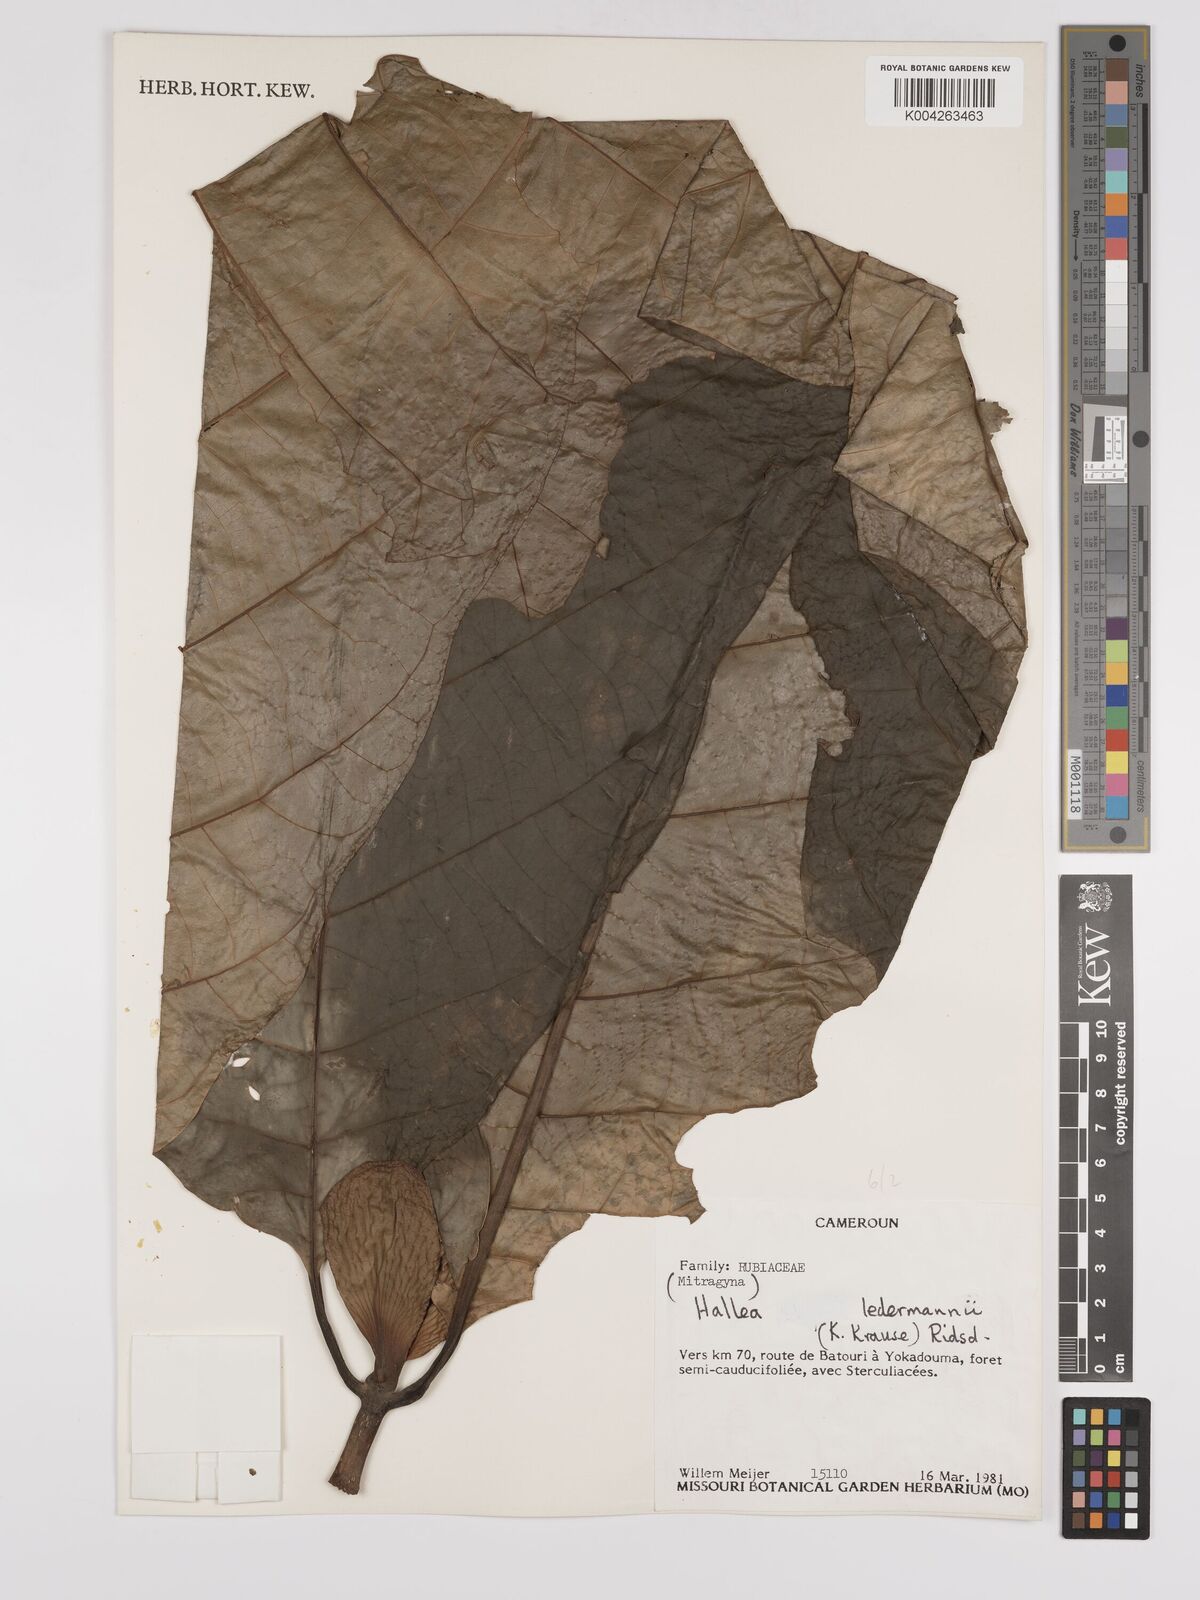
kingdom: Plantae
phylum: Tracheophyta
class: Magnoliopsida
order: Gentianales
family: Rubiaceae
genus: Mitragyna
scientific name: Mitragyna stipulosa
